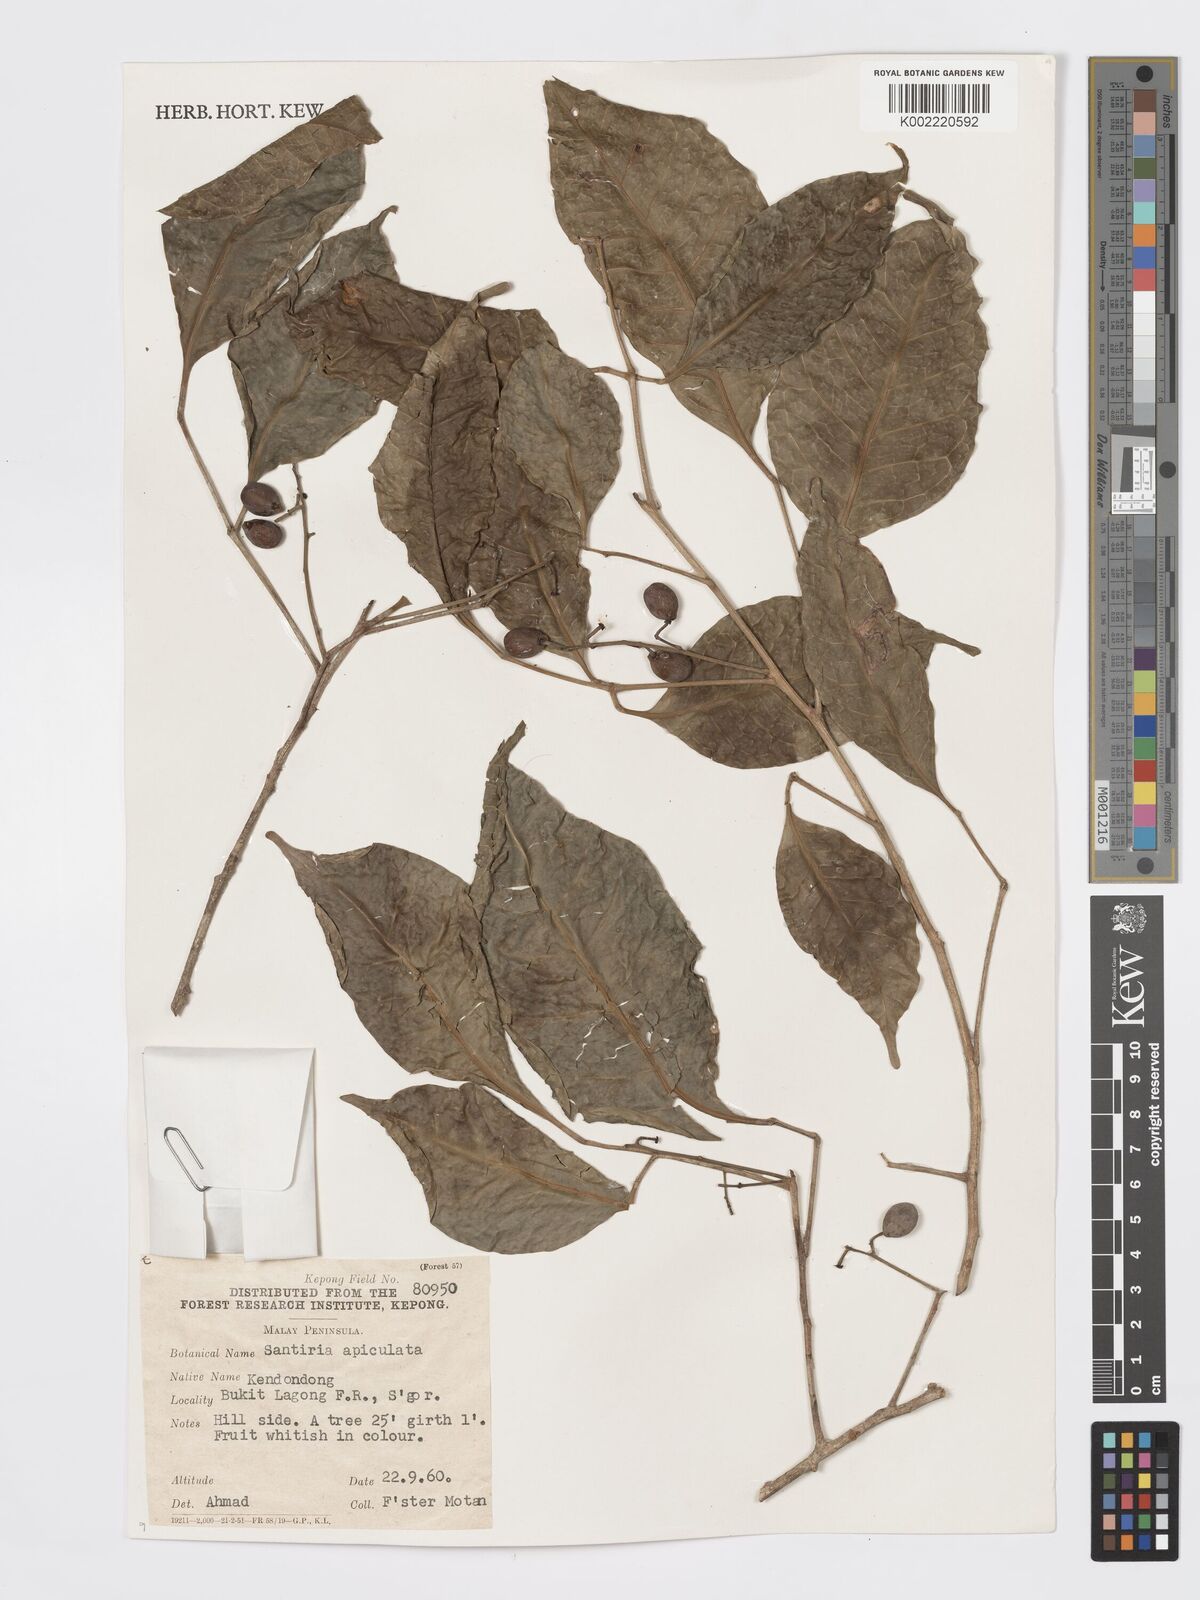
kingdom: Plantae
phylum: Tracheophyta
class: Magnoliopsida
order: Sapindales
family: Burseraceae
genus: Santiria
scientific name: Santiria apiculata
